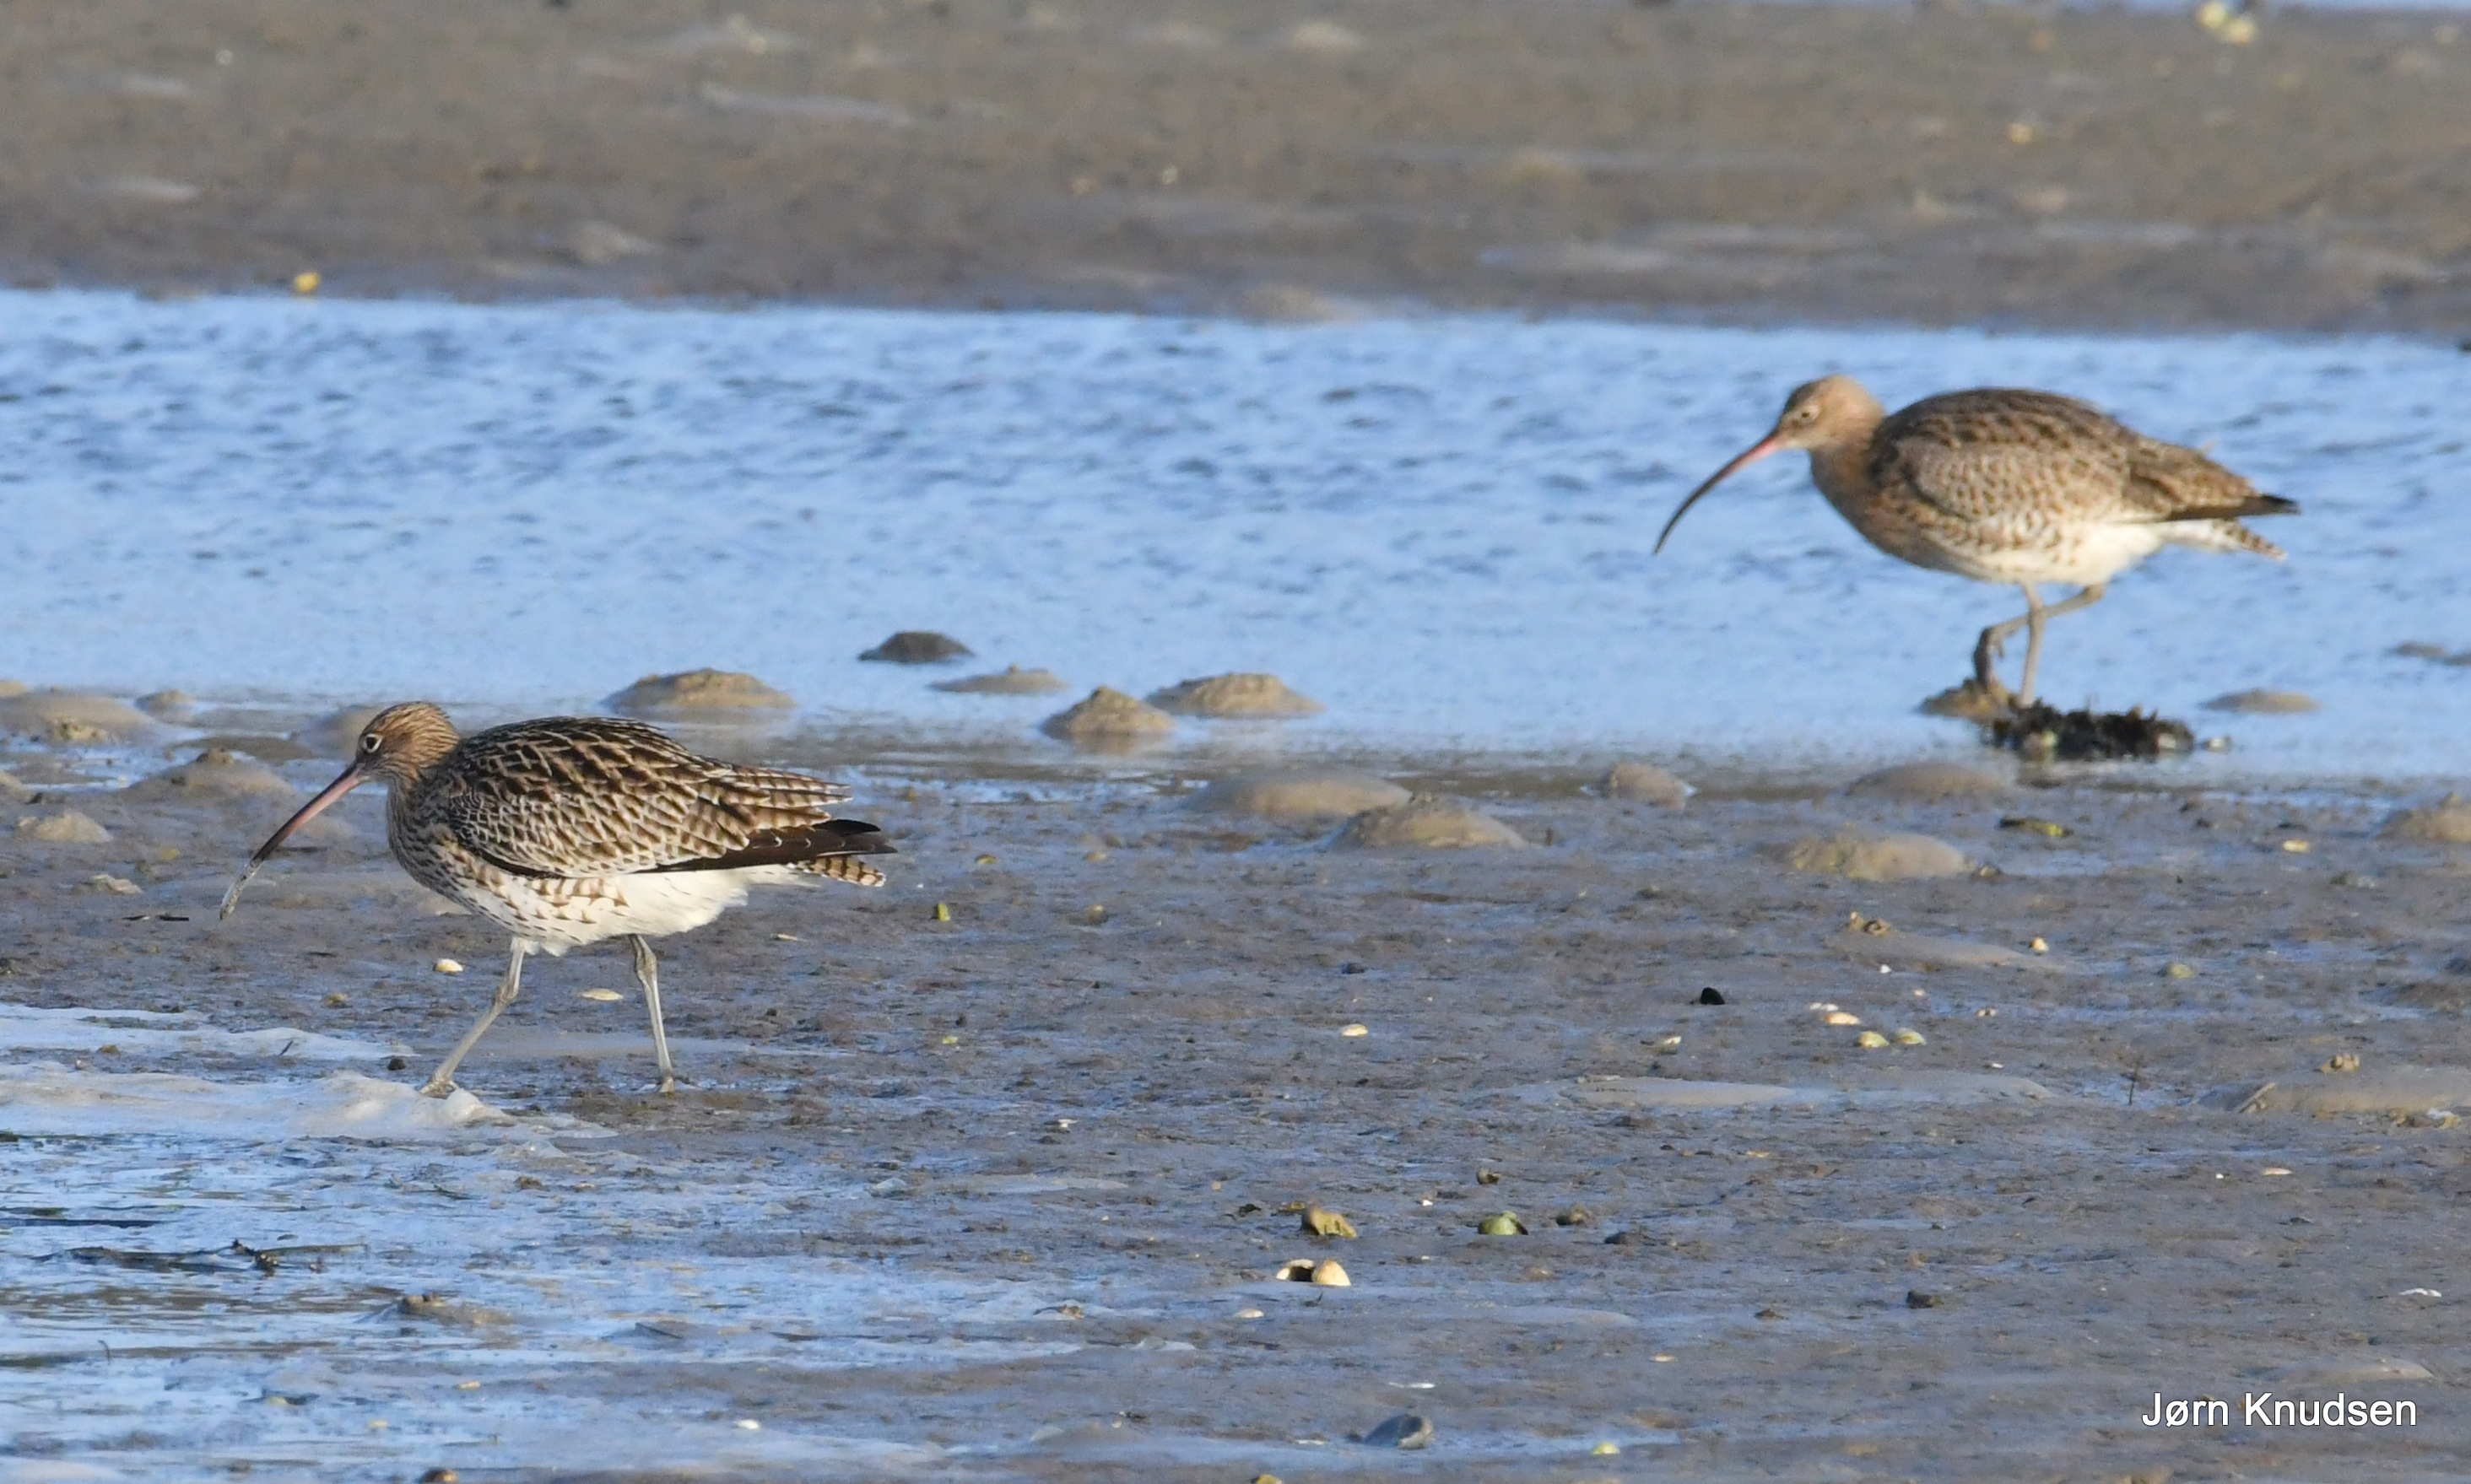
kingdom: Animalia
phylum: Chordata
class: Aves
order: Charadriiformes
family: Scolopacidae
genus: Numenius
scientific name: Numenius arquata
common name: Storspove
